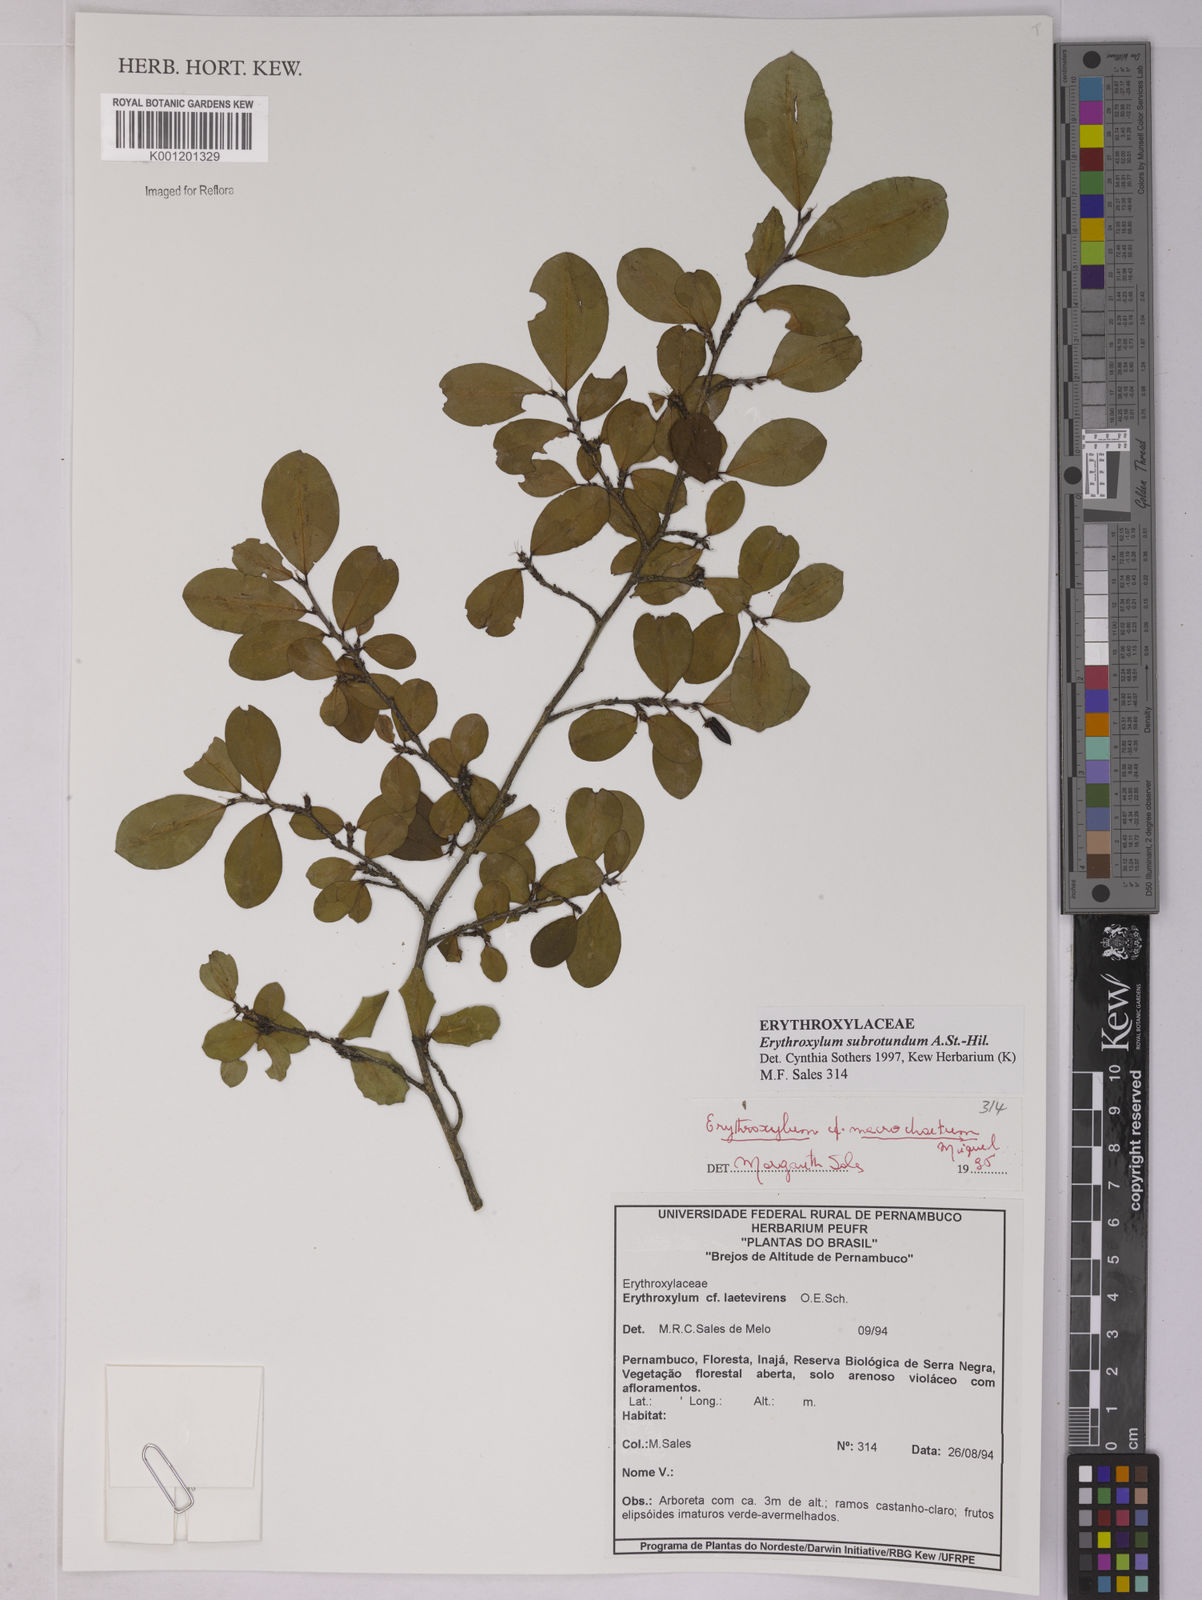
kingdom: Plantae
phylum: Tracheophyta
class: Magnoliopsida
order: Malpighiales
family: Erythroxylaceae
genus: Erythroxylum
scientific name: Erythroxylum subrotundum
